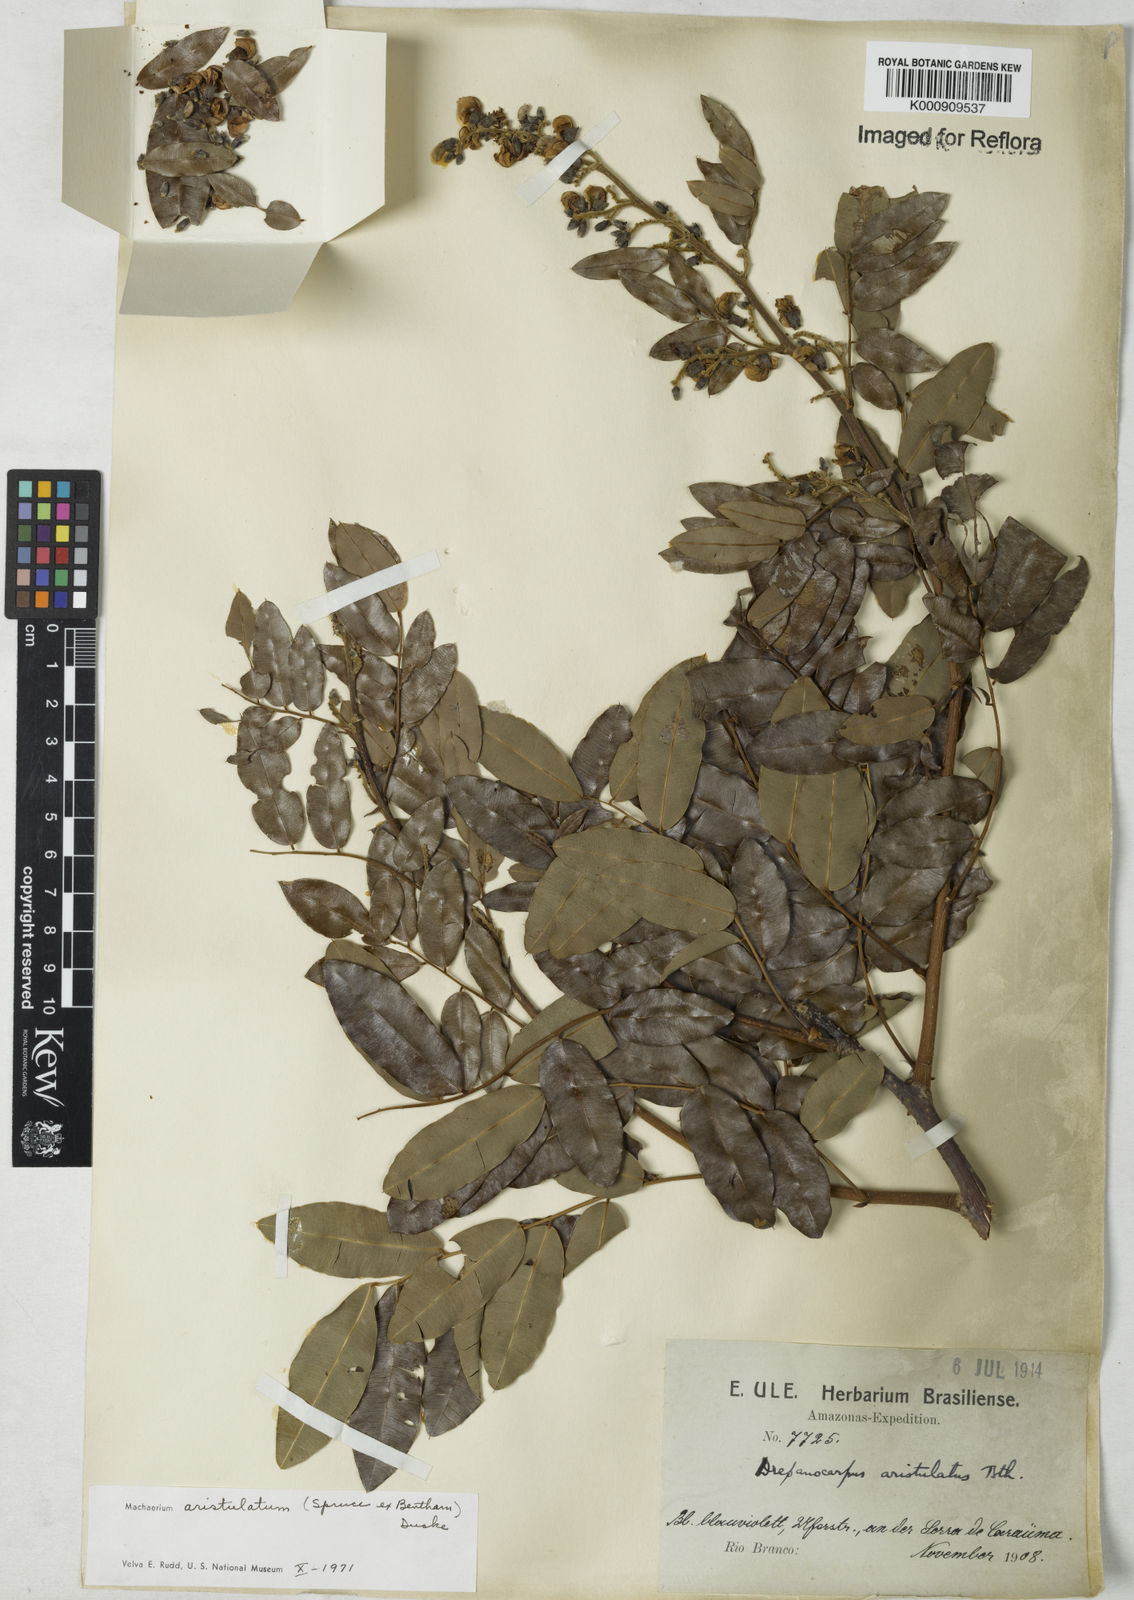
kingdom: Plantae
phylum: Tracheophyta
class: Magnoliopsida
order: Fabales
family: Fabaceae
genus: Machaerium
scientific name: Machaerium aristulatum
